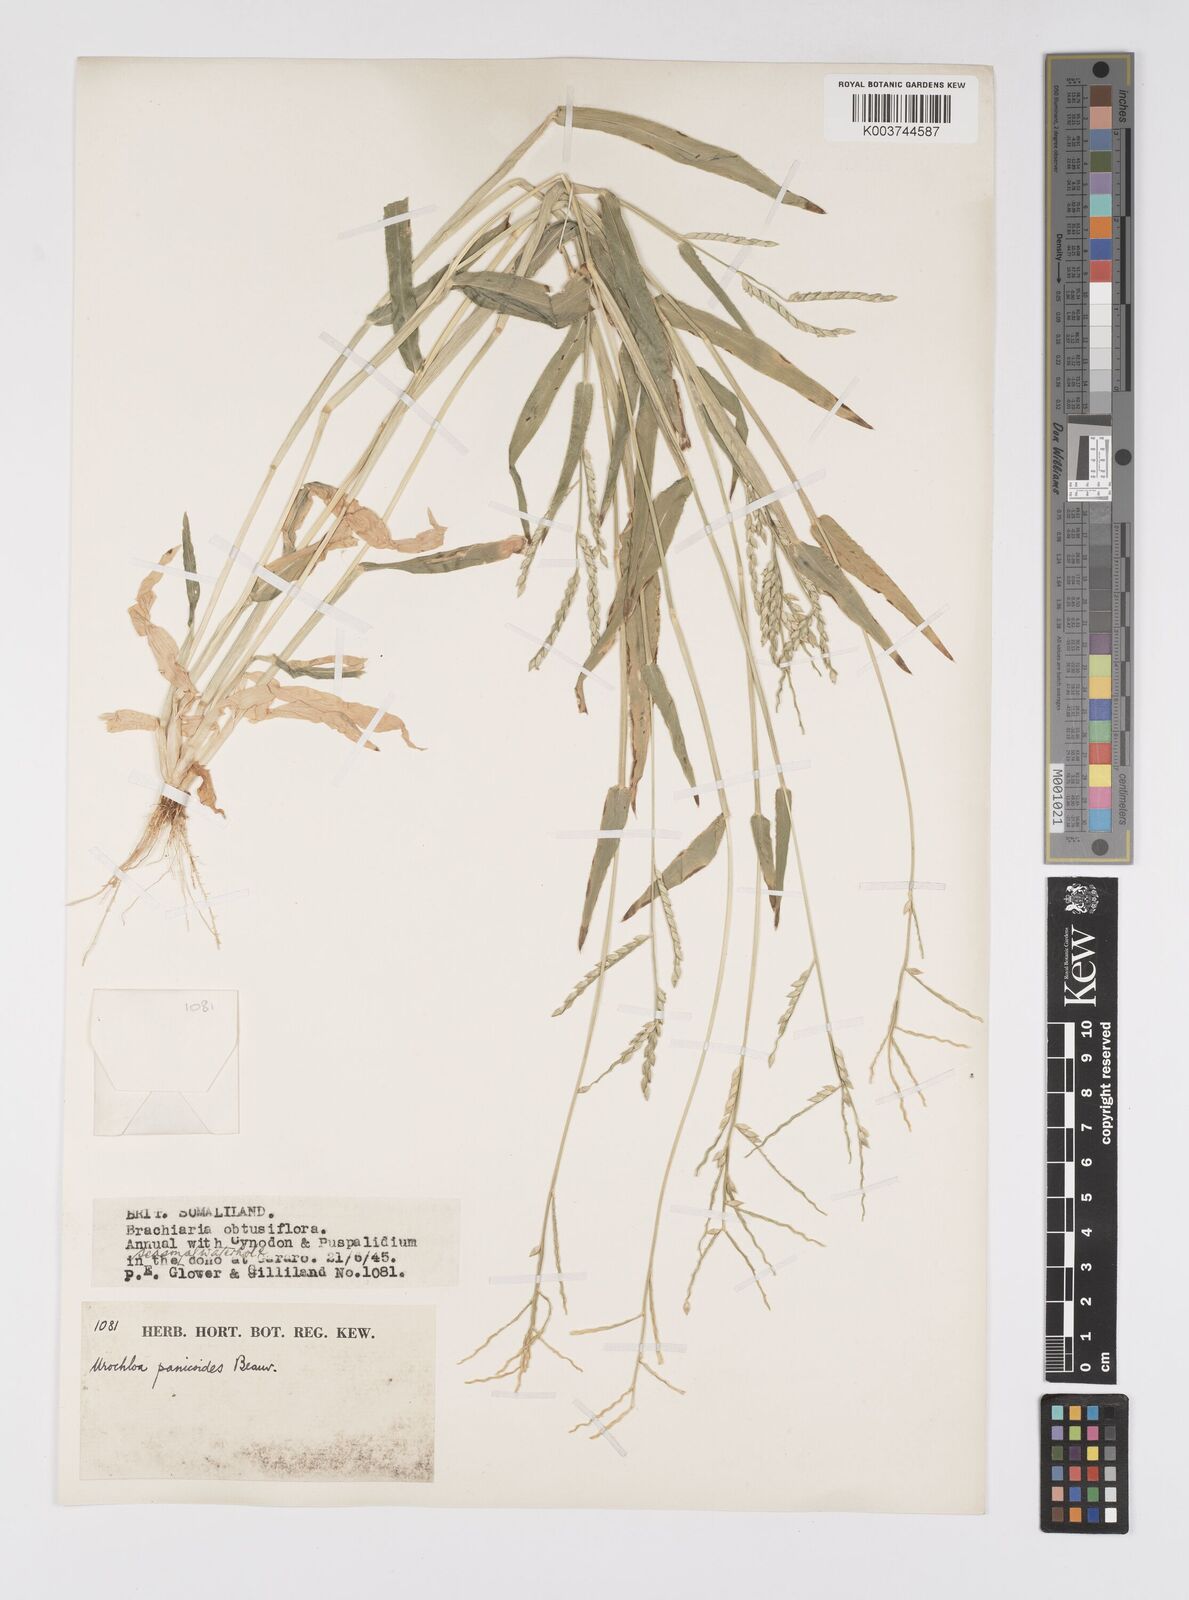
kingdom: Plantae
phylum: Tracheophyta
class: Liliopsida
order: Poales
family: Poaceae
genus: Urochloa
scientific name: Urochloa panicoides
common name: Sharp-flowered signal-grass
